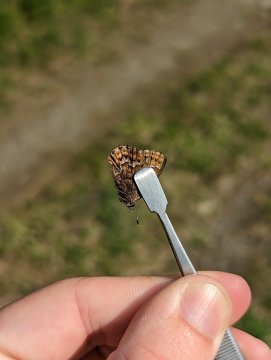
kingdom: Animalia
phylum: Arthropoda
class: Insecta
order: Lepidoptera
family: Lycaenidae
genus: Incisalia
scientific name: Incisalia niphon
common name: Eastern Pine Elfin
